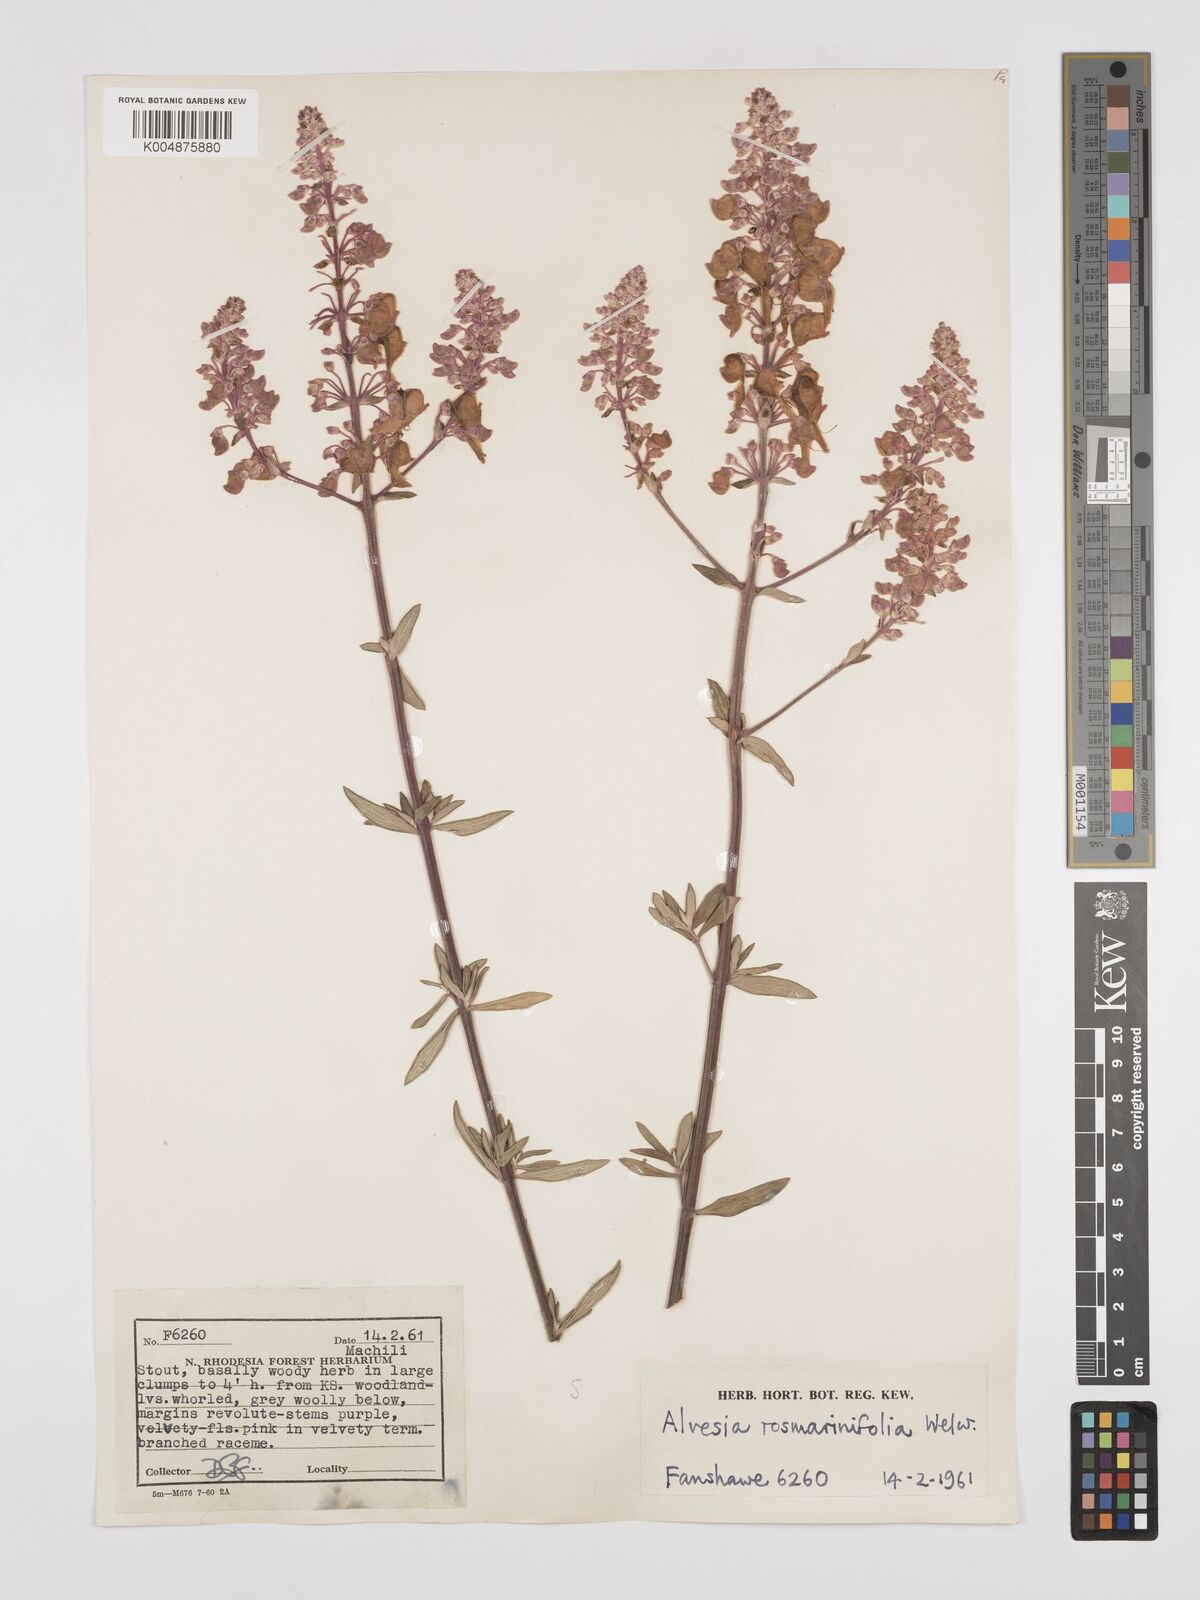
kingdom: Plantae
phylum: Tracheophyta
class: Magnoliopsida
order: Lamiales
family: Lamiaceae
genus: Alvesia
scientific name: Alvesia rosmarinifolia
